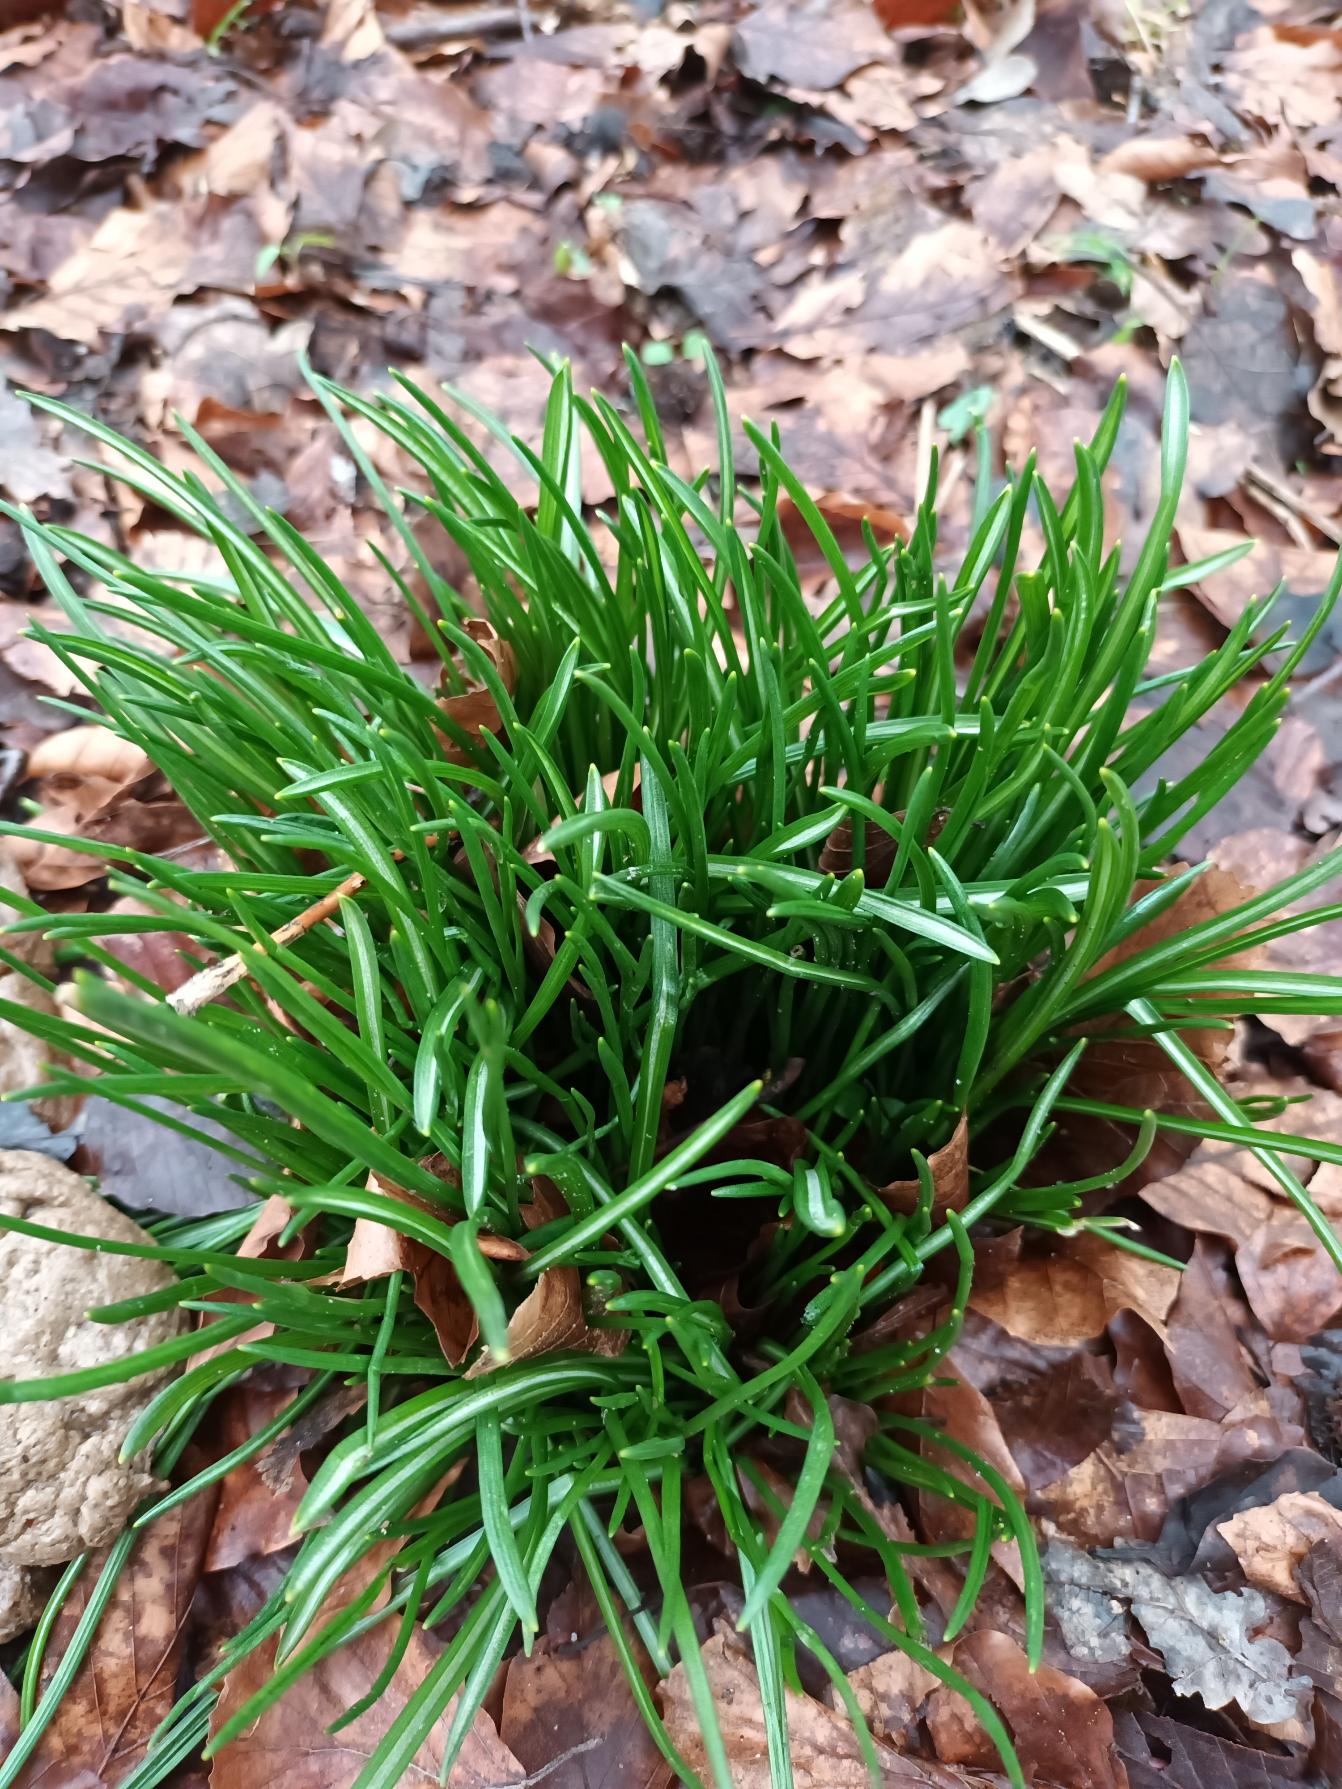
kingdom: Plantae
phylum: Tracheophyta
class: Liliopsida
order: Asparagales
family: Asparagaceae
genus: Ornithogalum
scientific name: Ornithogalum umbellatum
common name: Kost-fuglemælk
